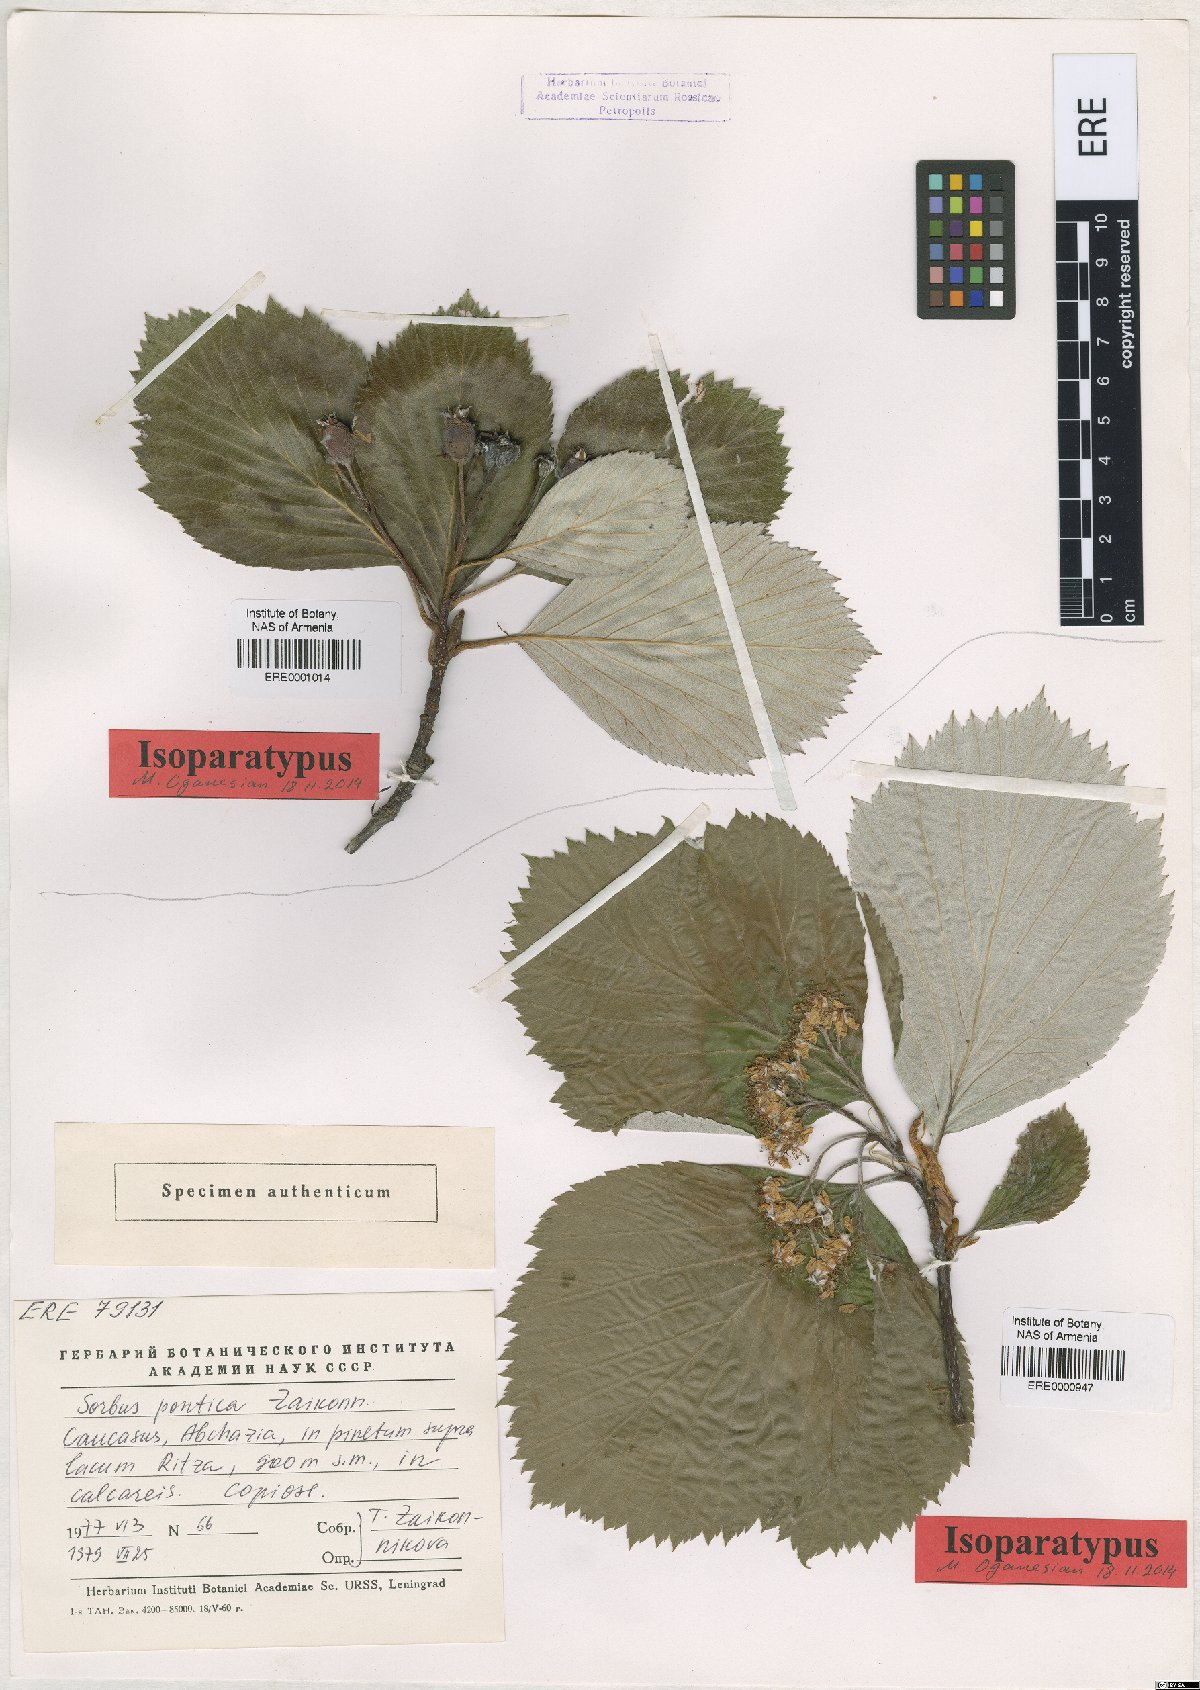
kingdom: Plantae
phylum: Tracheophyta
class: Magnoliopsida
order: Rosales
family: Rosaceae
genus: Sorbus
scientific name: Sorbus pontica
